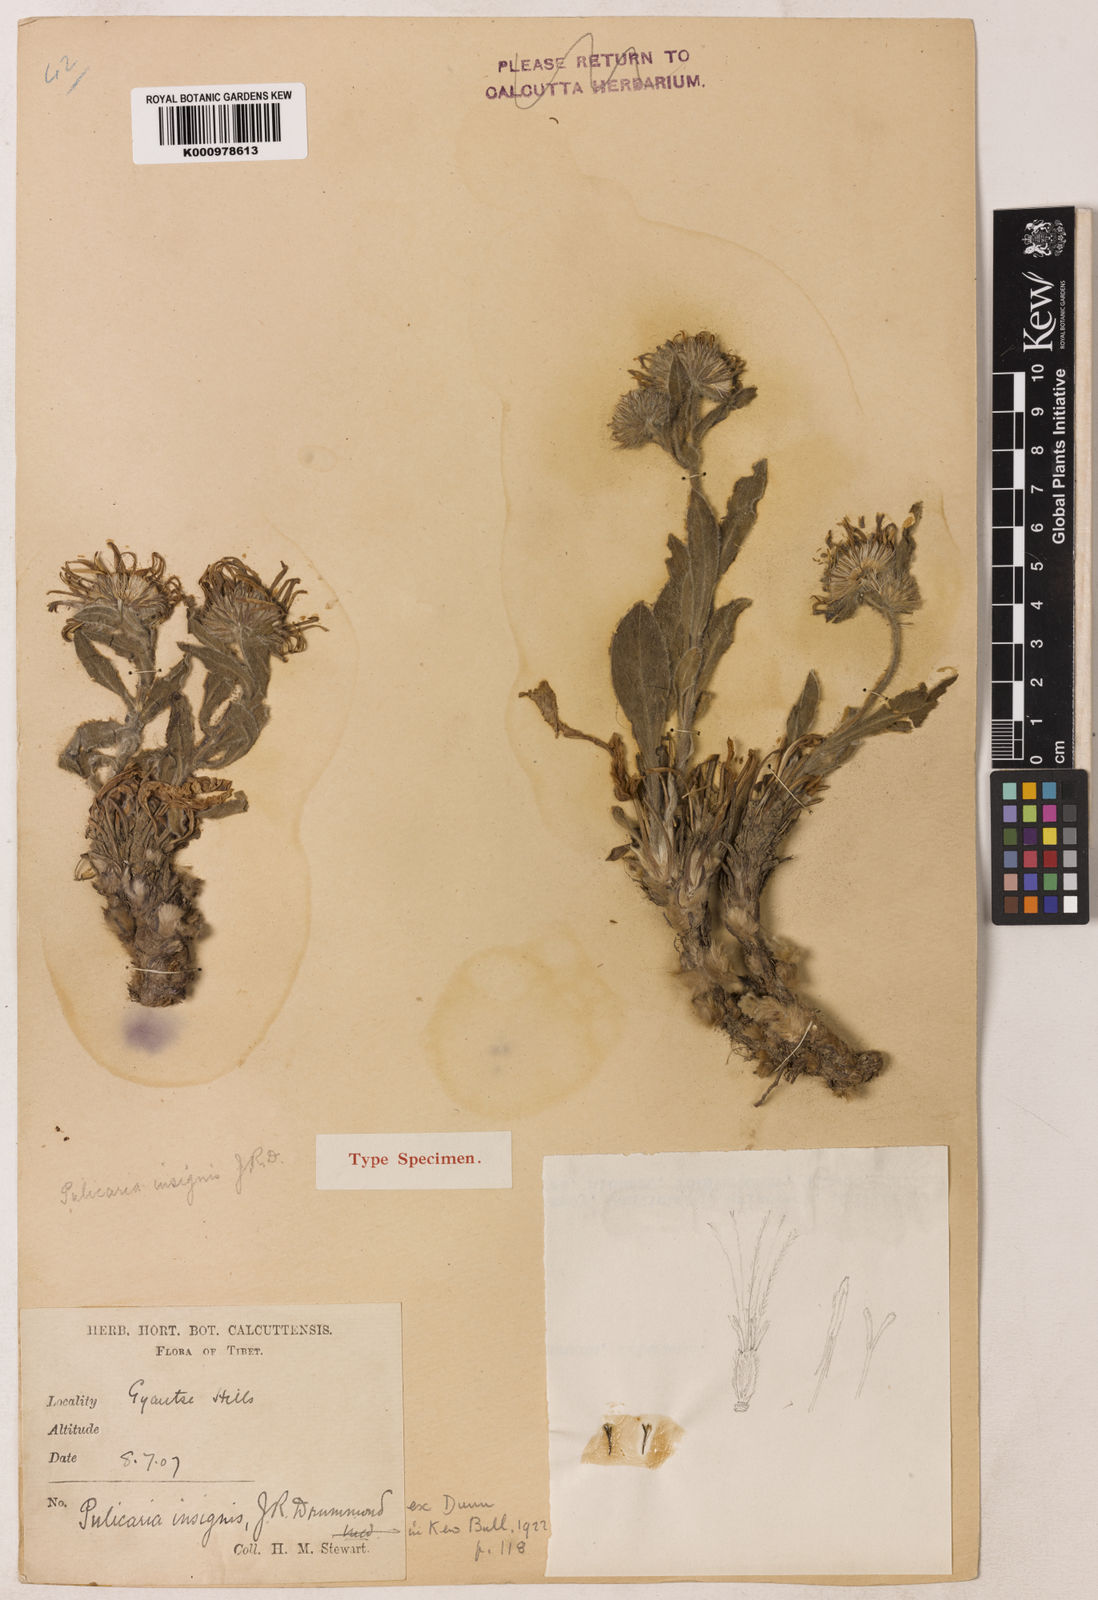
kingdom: Plantae
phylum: Tracheophyta
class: Magnoliopsida
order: Asterales
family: Asteraceae
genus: Pulicaria
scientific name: Pulicaria insignis
